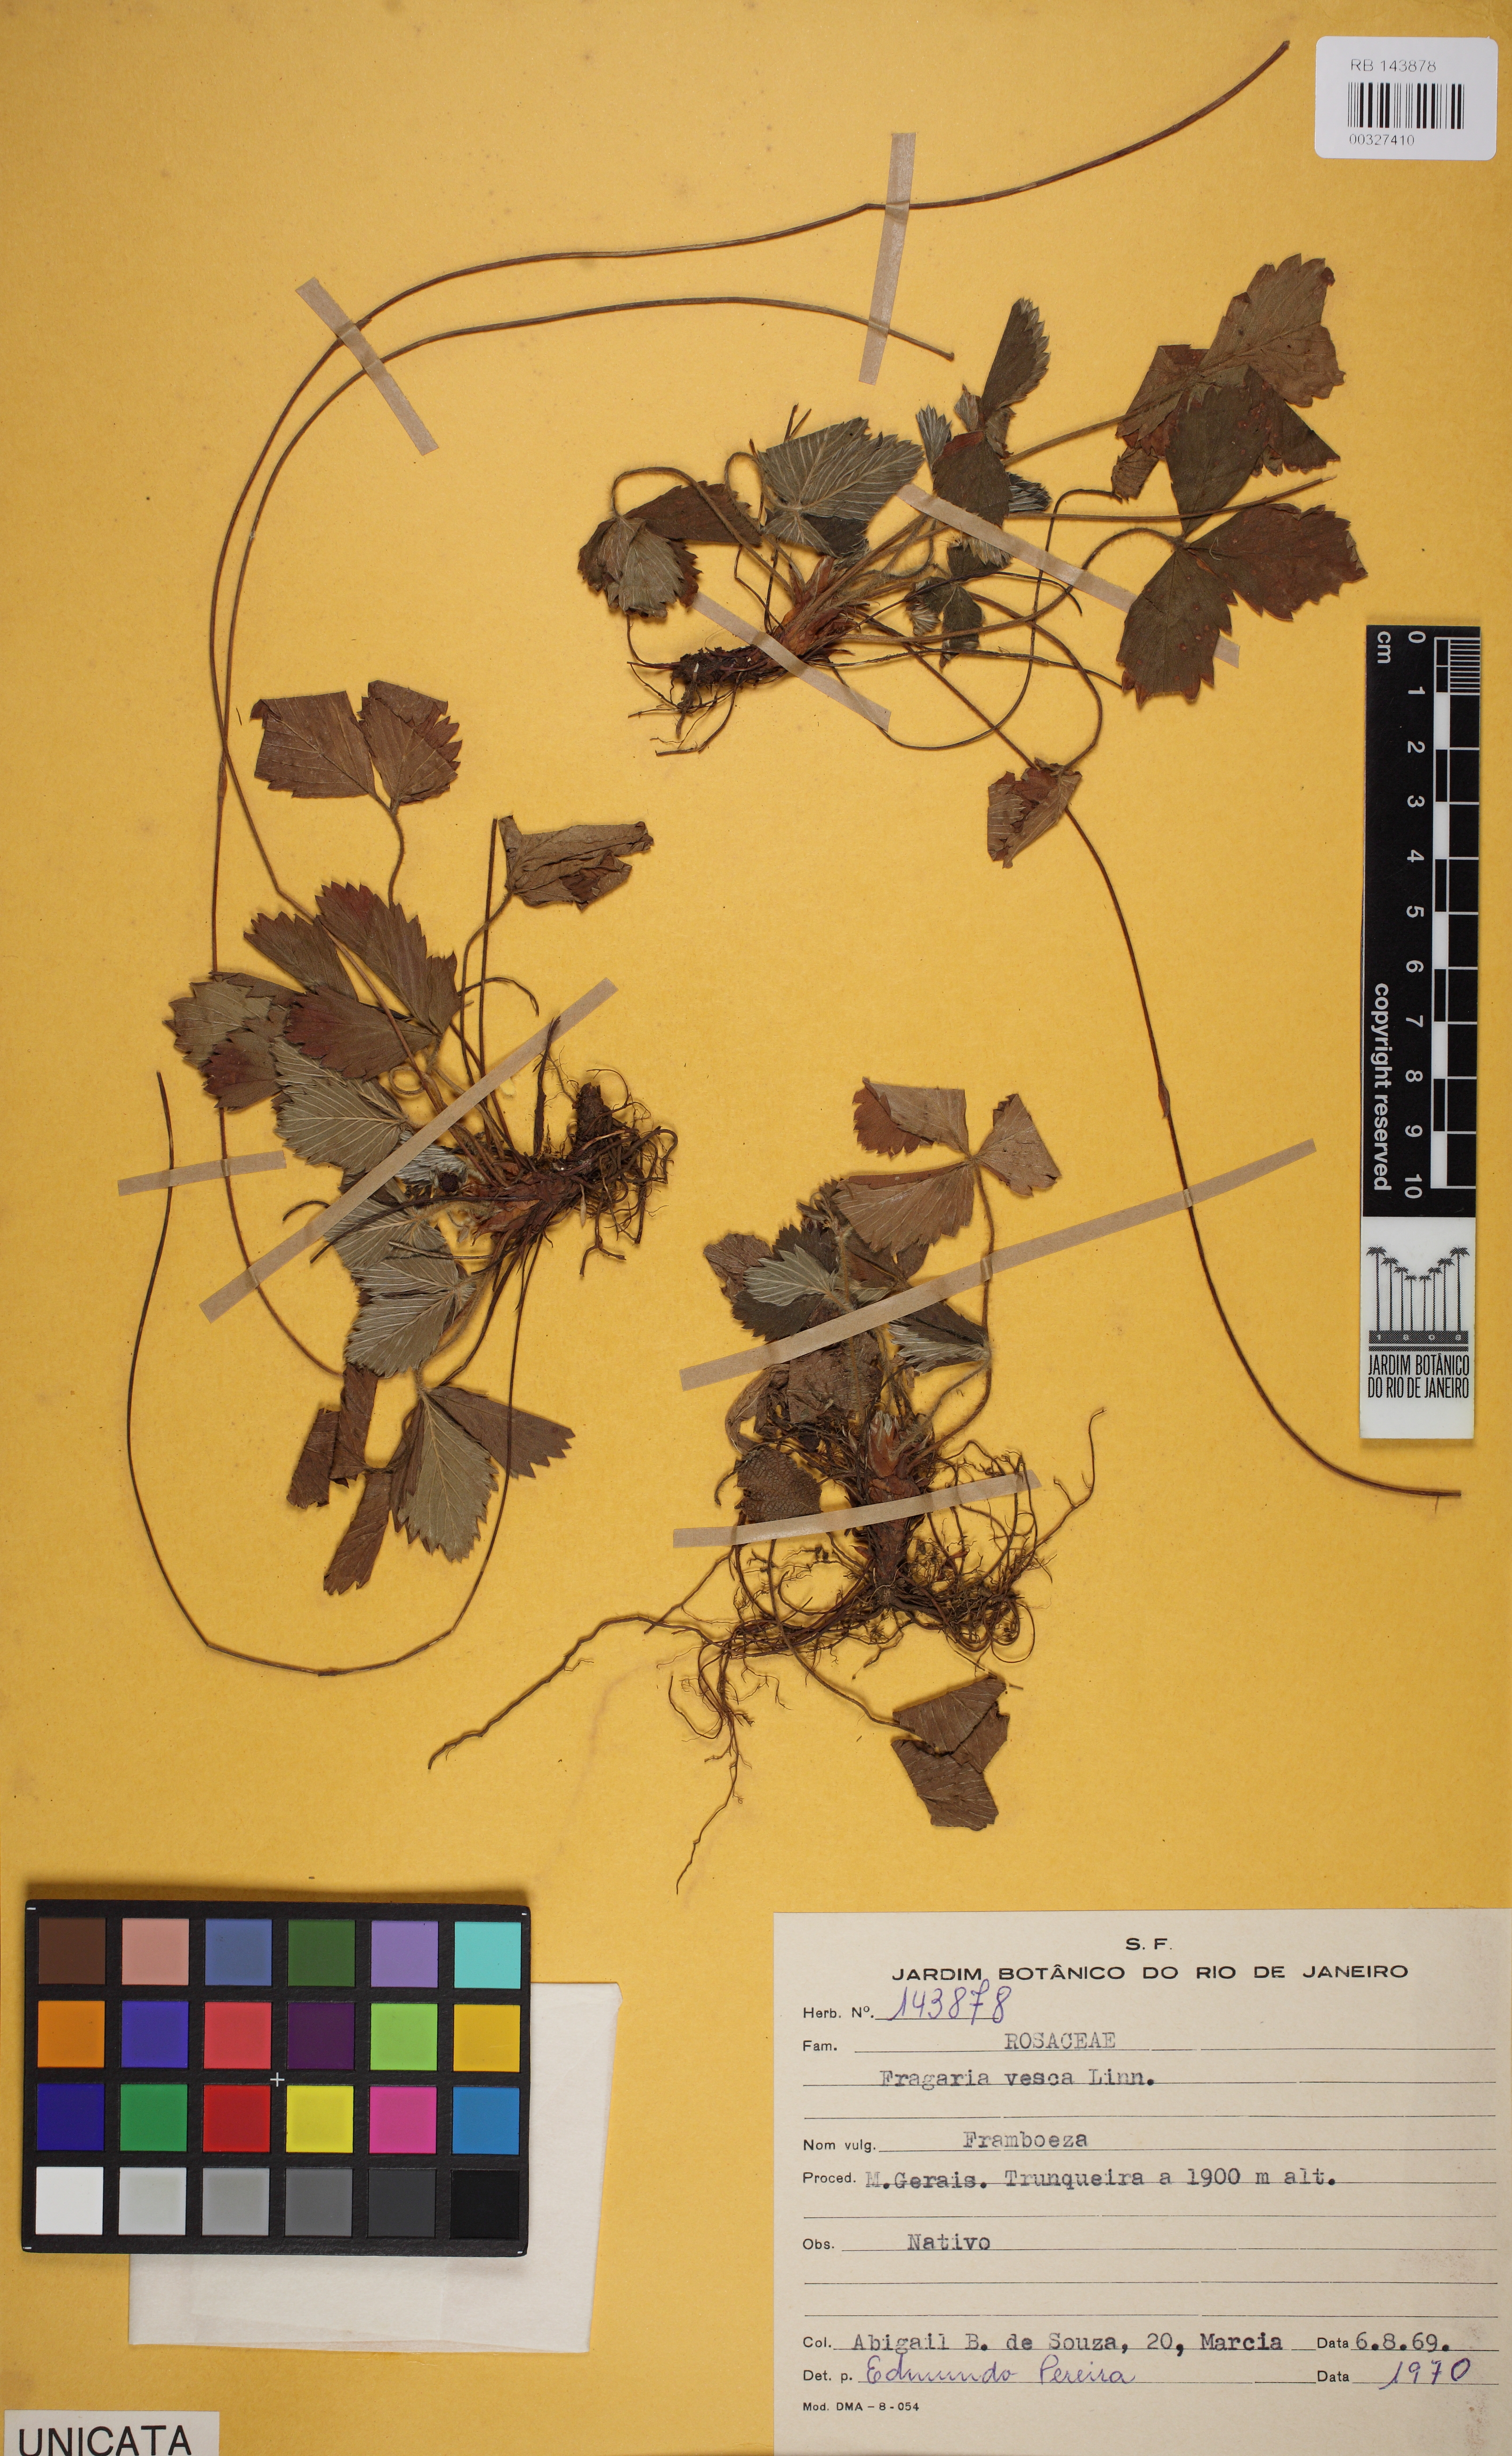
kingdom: Plantae
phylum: Tracheophyta
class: Magnoliopsida
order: Rosales
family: Rosaceae
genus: Fragaria
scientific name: Fragaria vesca
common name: Wild strawberry
